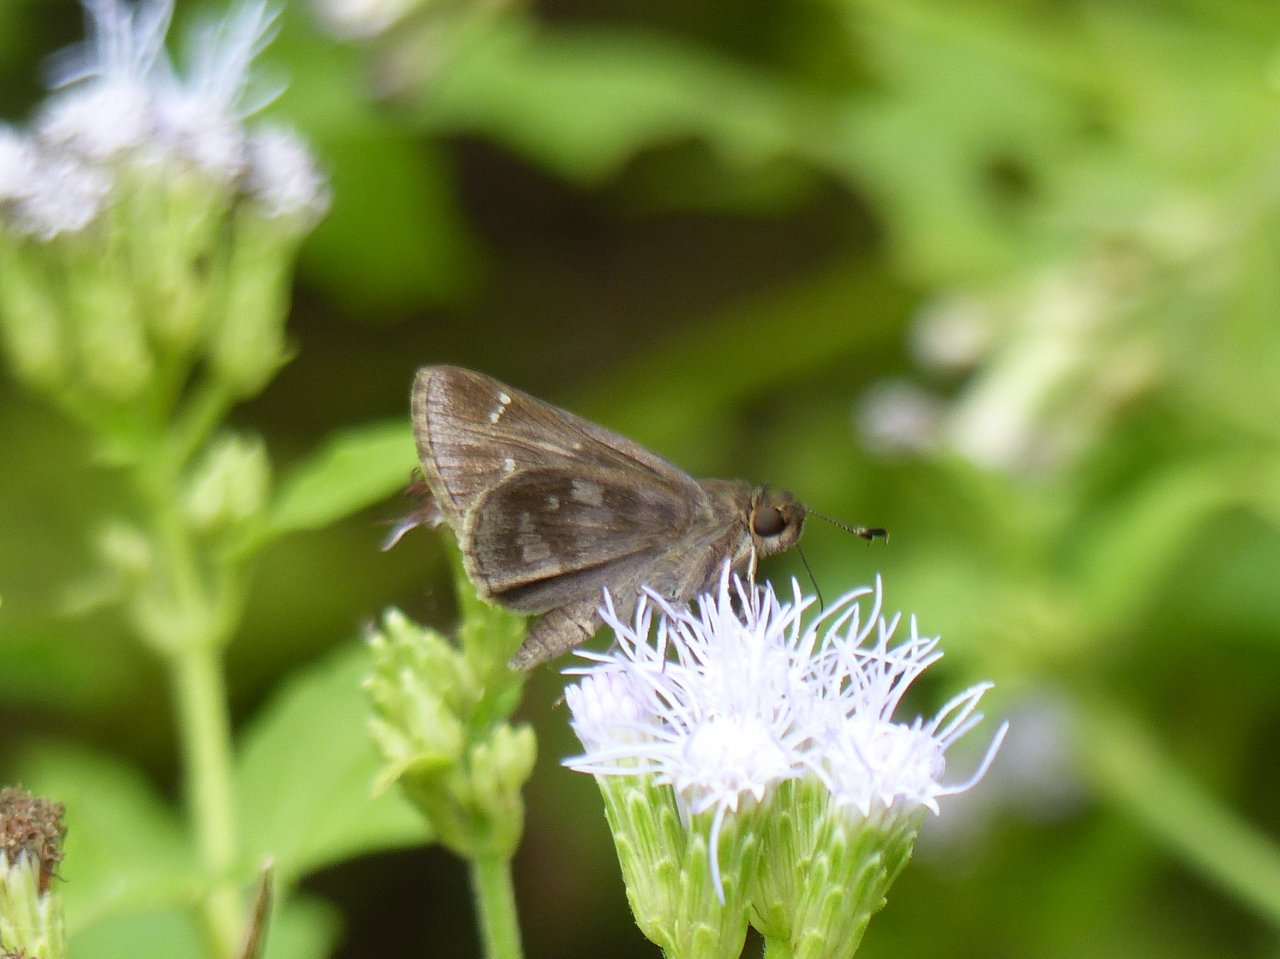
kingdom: Animalia
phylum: Arthropoda
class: Insecta
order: Lepidoptera
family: Hesperiidae
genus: Cymaenes
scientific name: Cymaenes odilia
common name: Fawn-spotted Skipper
